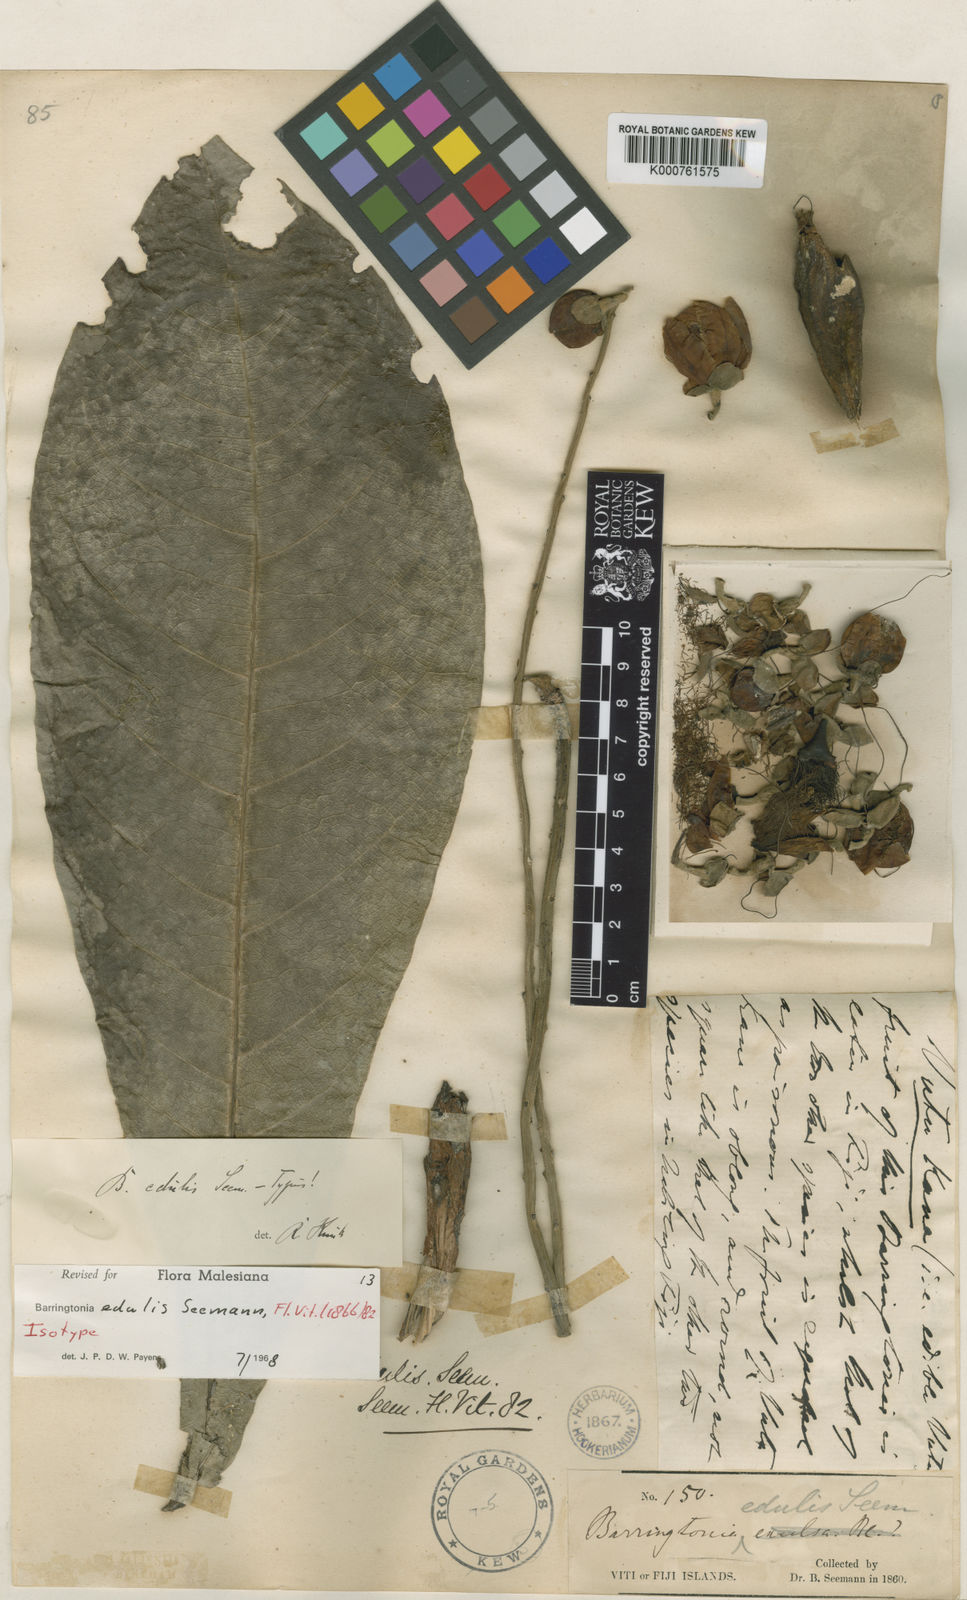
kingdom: Plantae
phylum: Tracheophyta
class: Magnoliopsida
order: Ericales
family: Lecythidaceae
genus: Barringtonia
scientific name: Barringtonia edulis
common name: Cutnut
